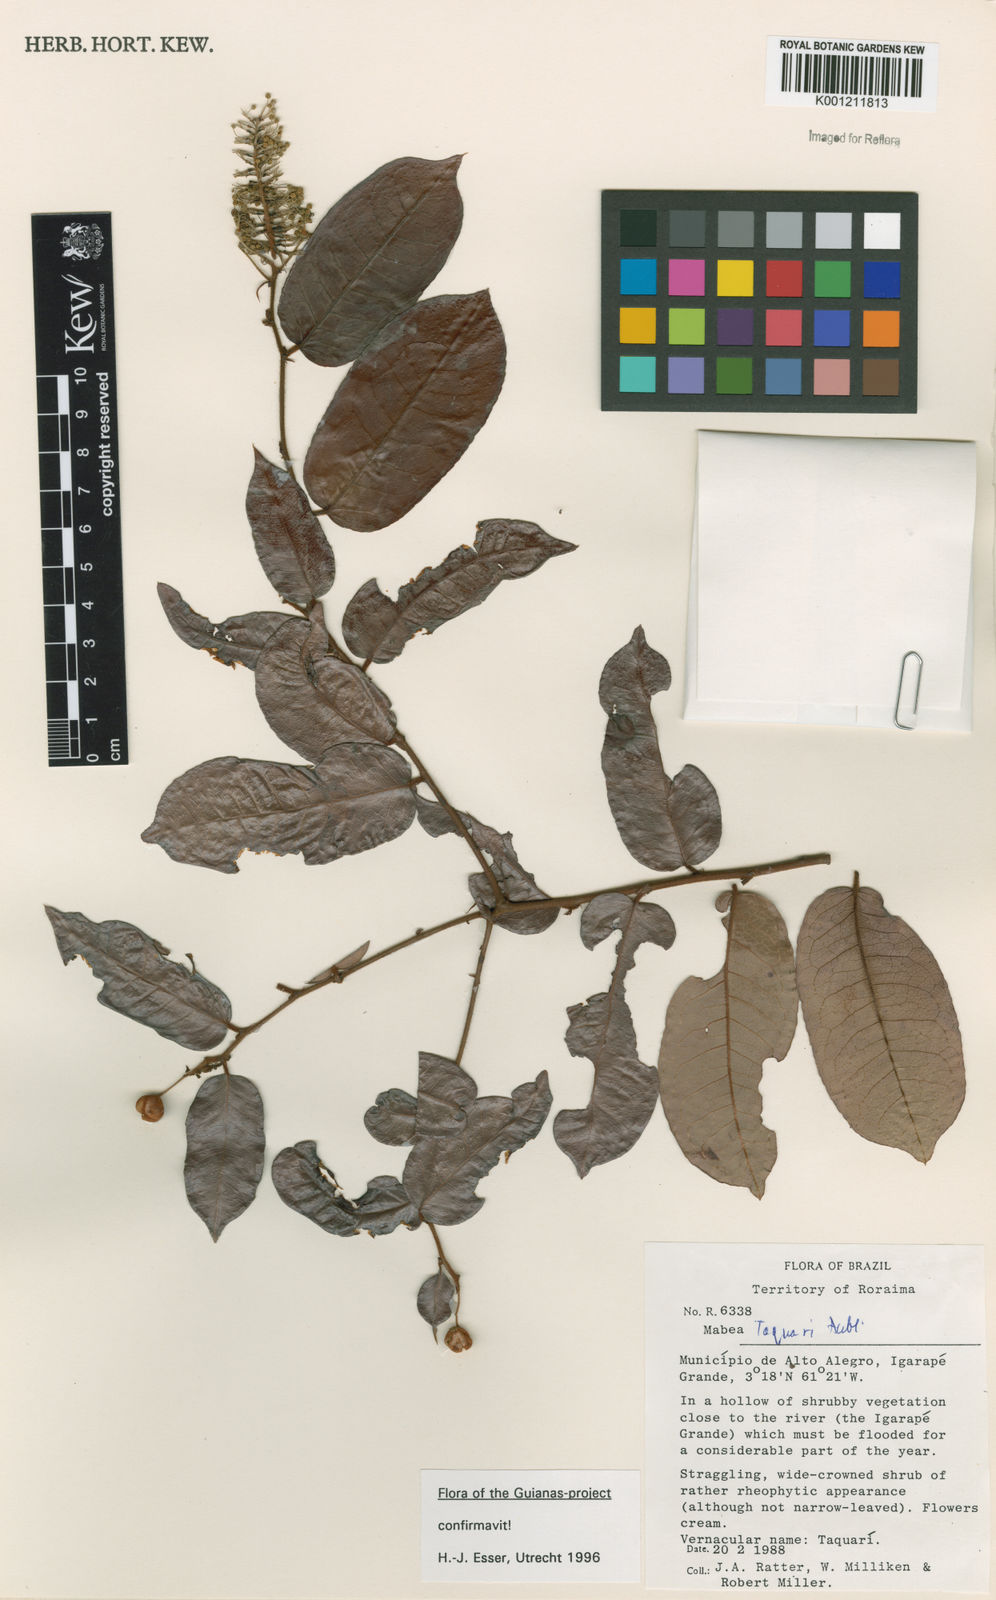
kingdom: Plantae
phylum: Tracheophyta
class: Magnoliopsida
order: Malpighiales
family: Euphorbiaceae
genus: Mabea
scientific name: Mabea taquari
